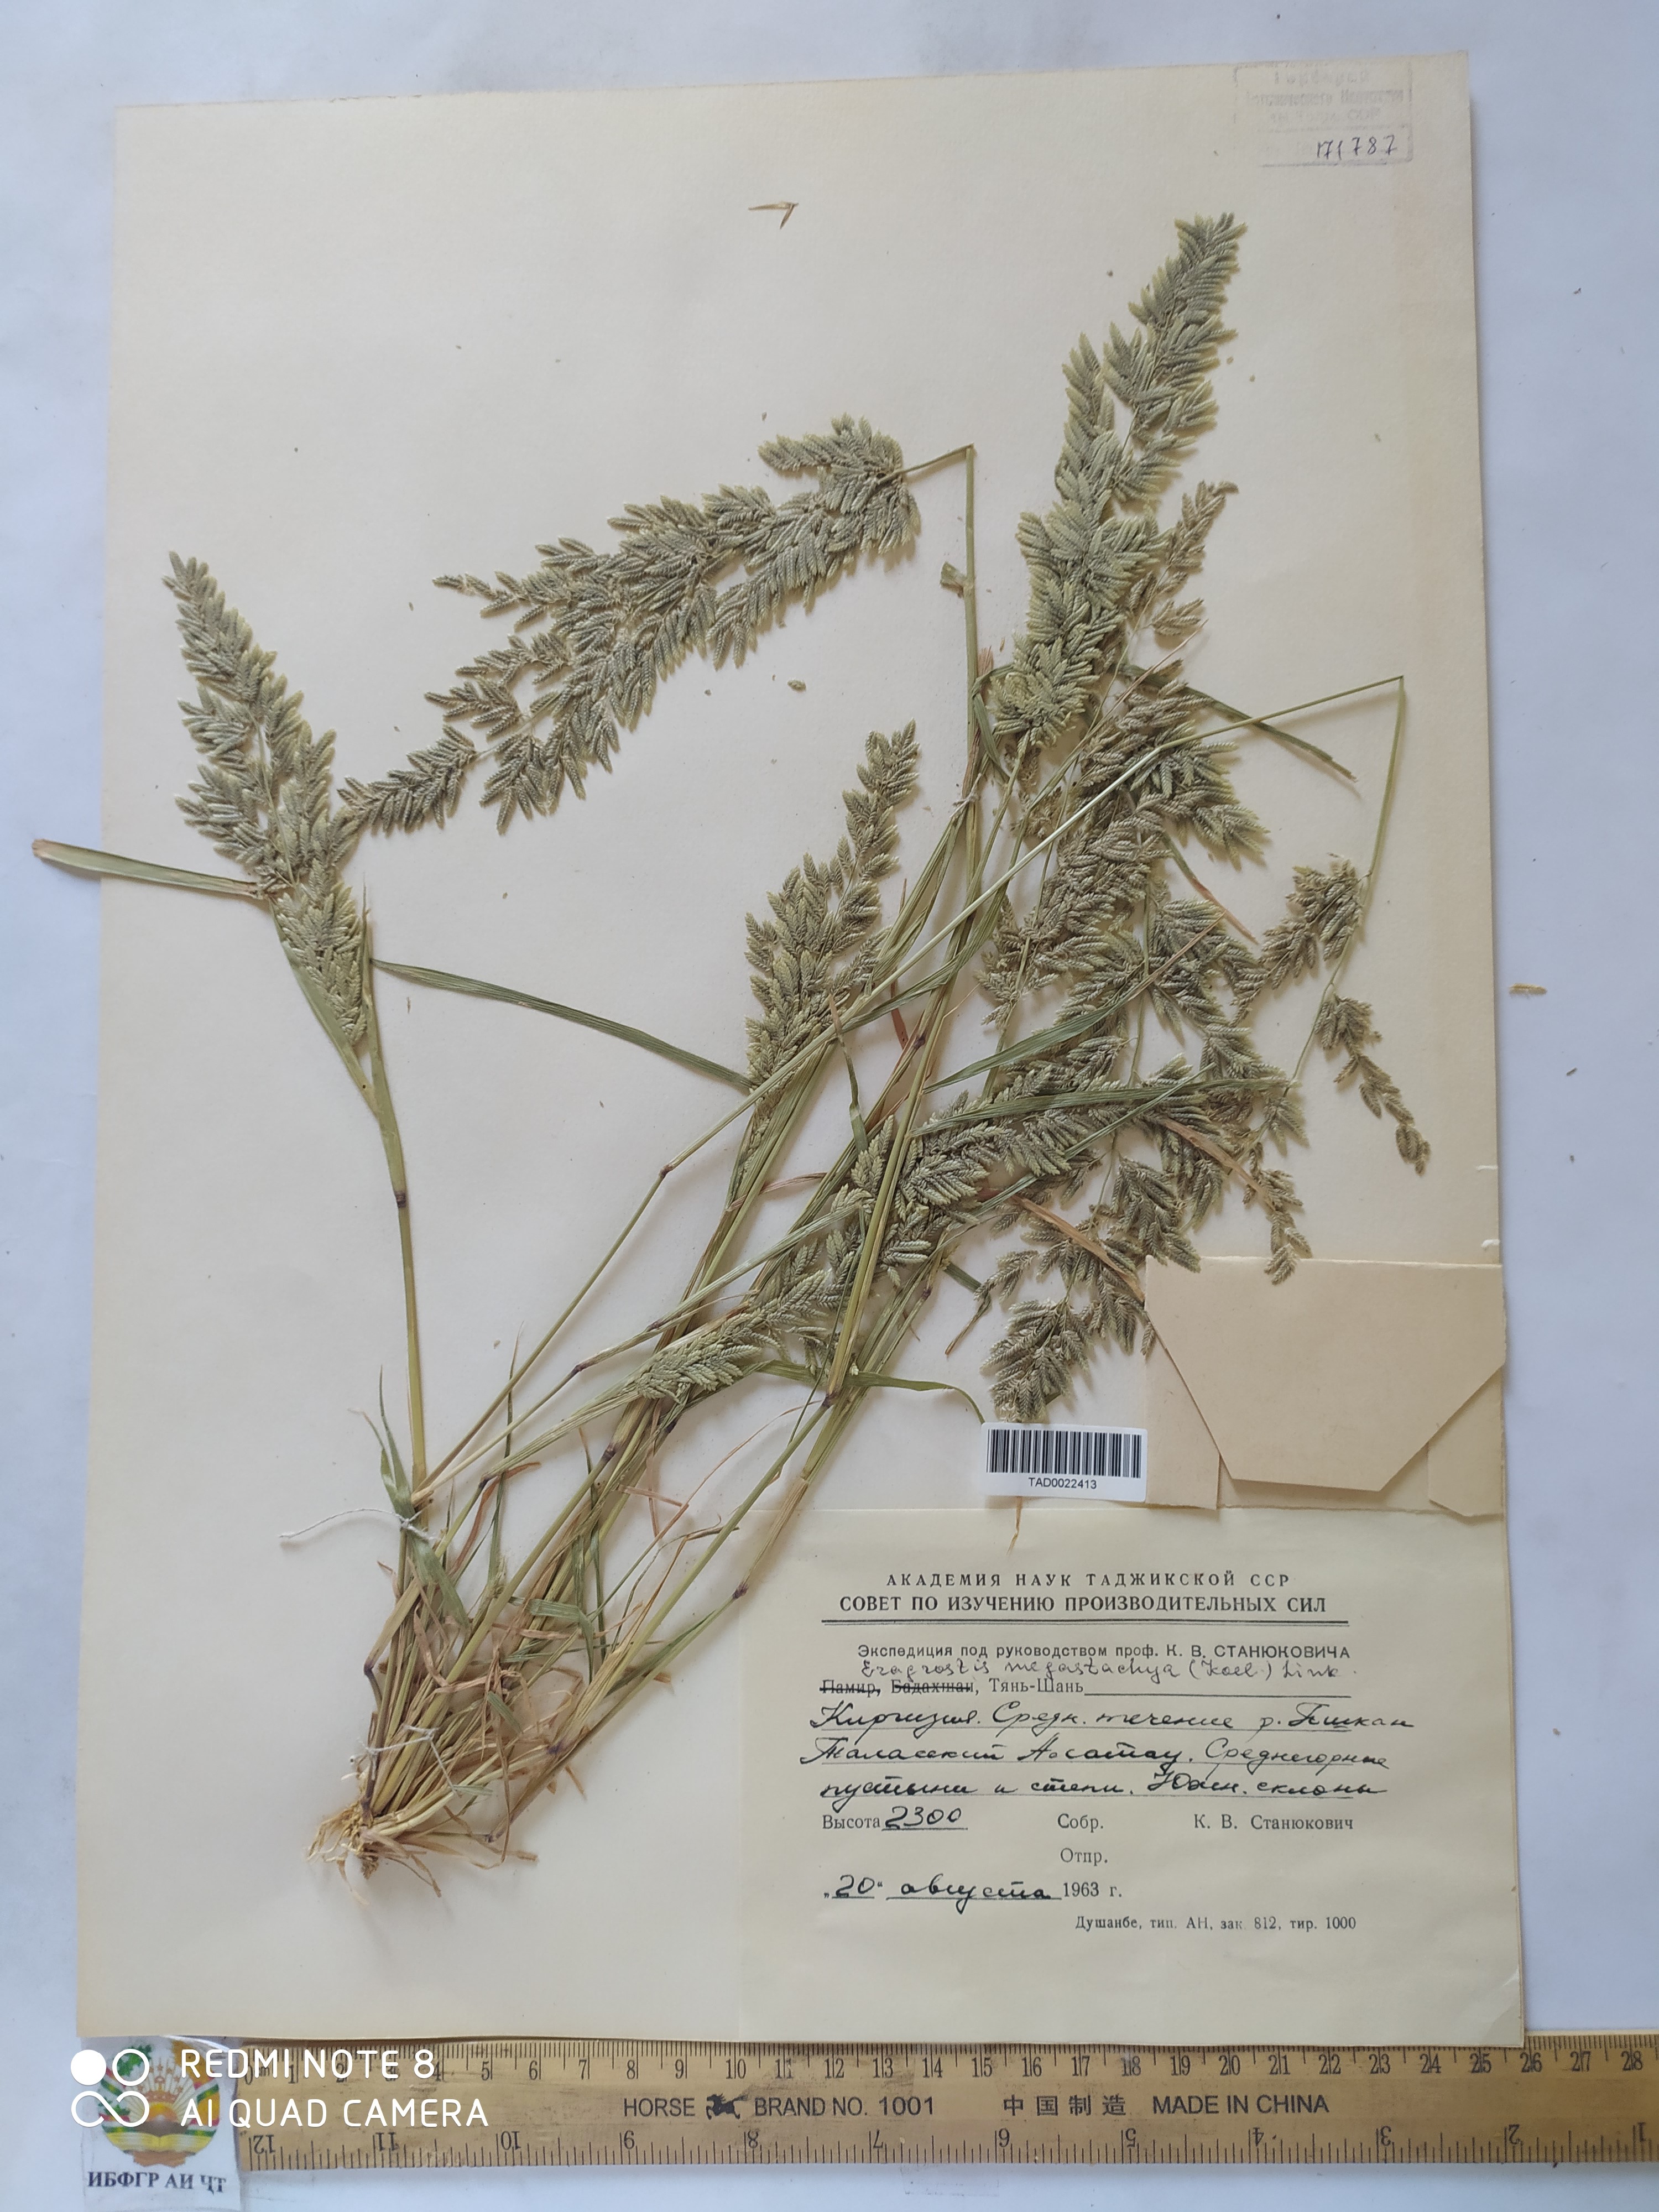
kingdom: Plantae
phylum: Tracheophyta
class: Liliopsida
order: Poales
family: Poaceae
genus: Eragrostis
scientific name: Eragrostis cilianensis
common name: Stinkgrass
